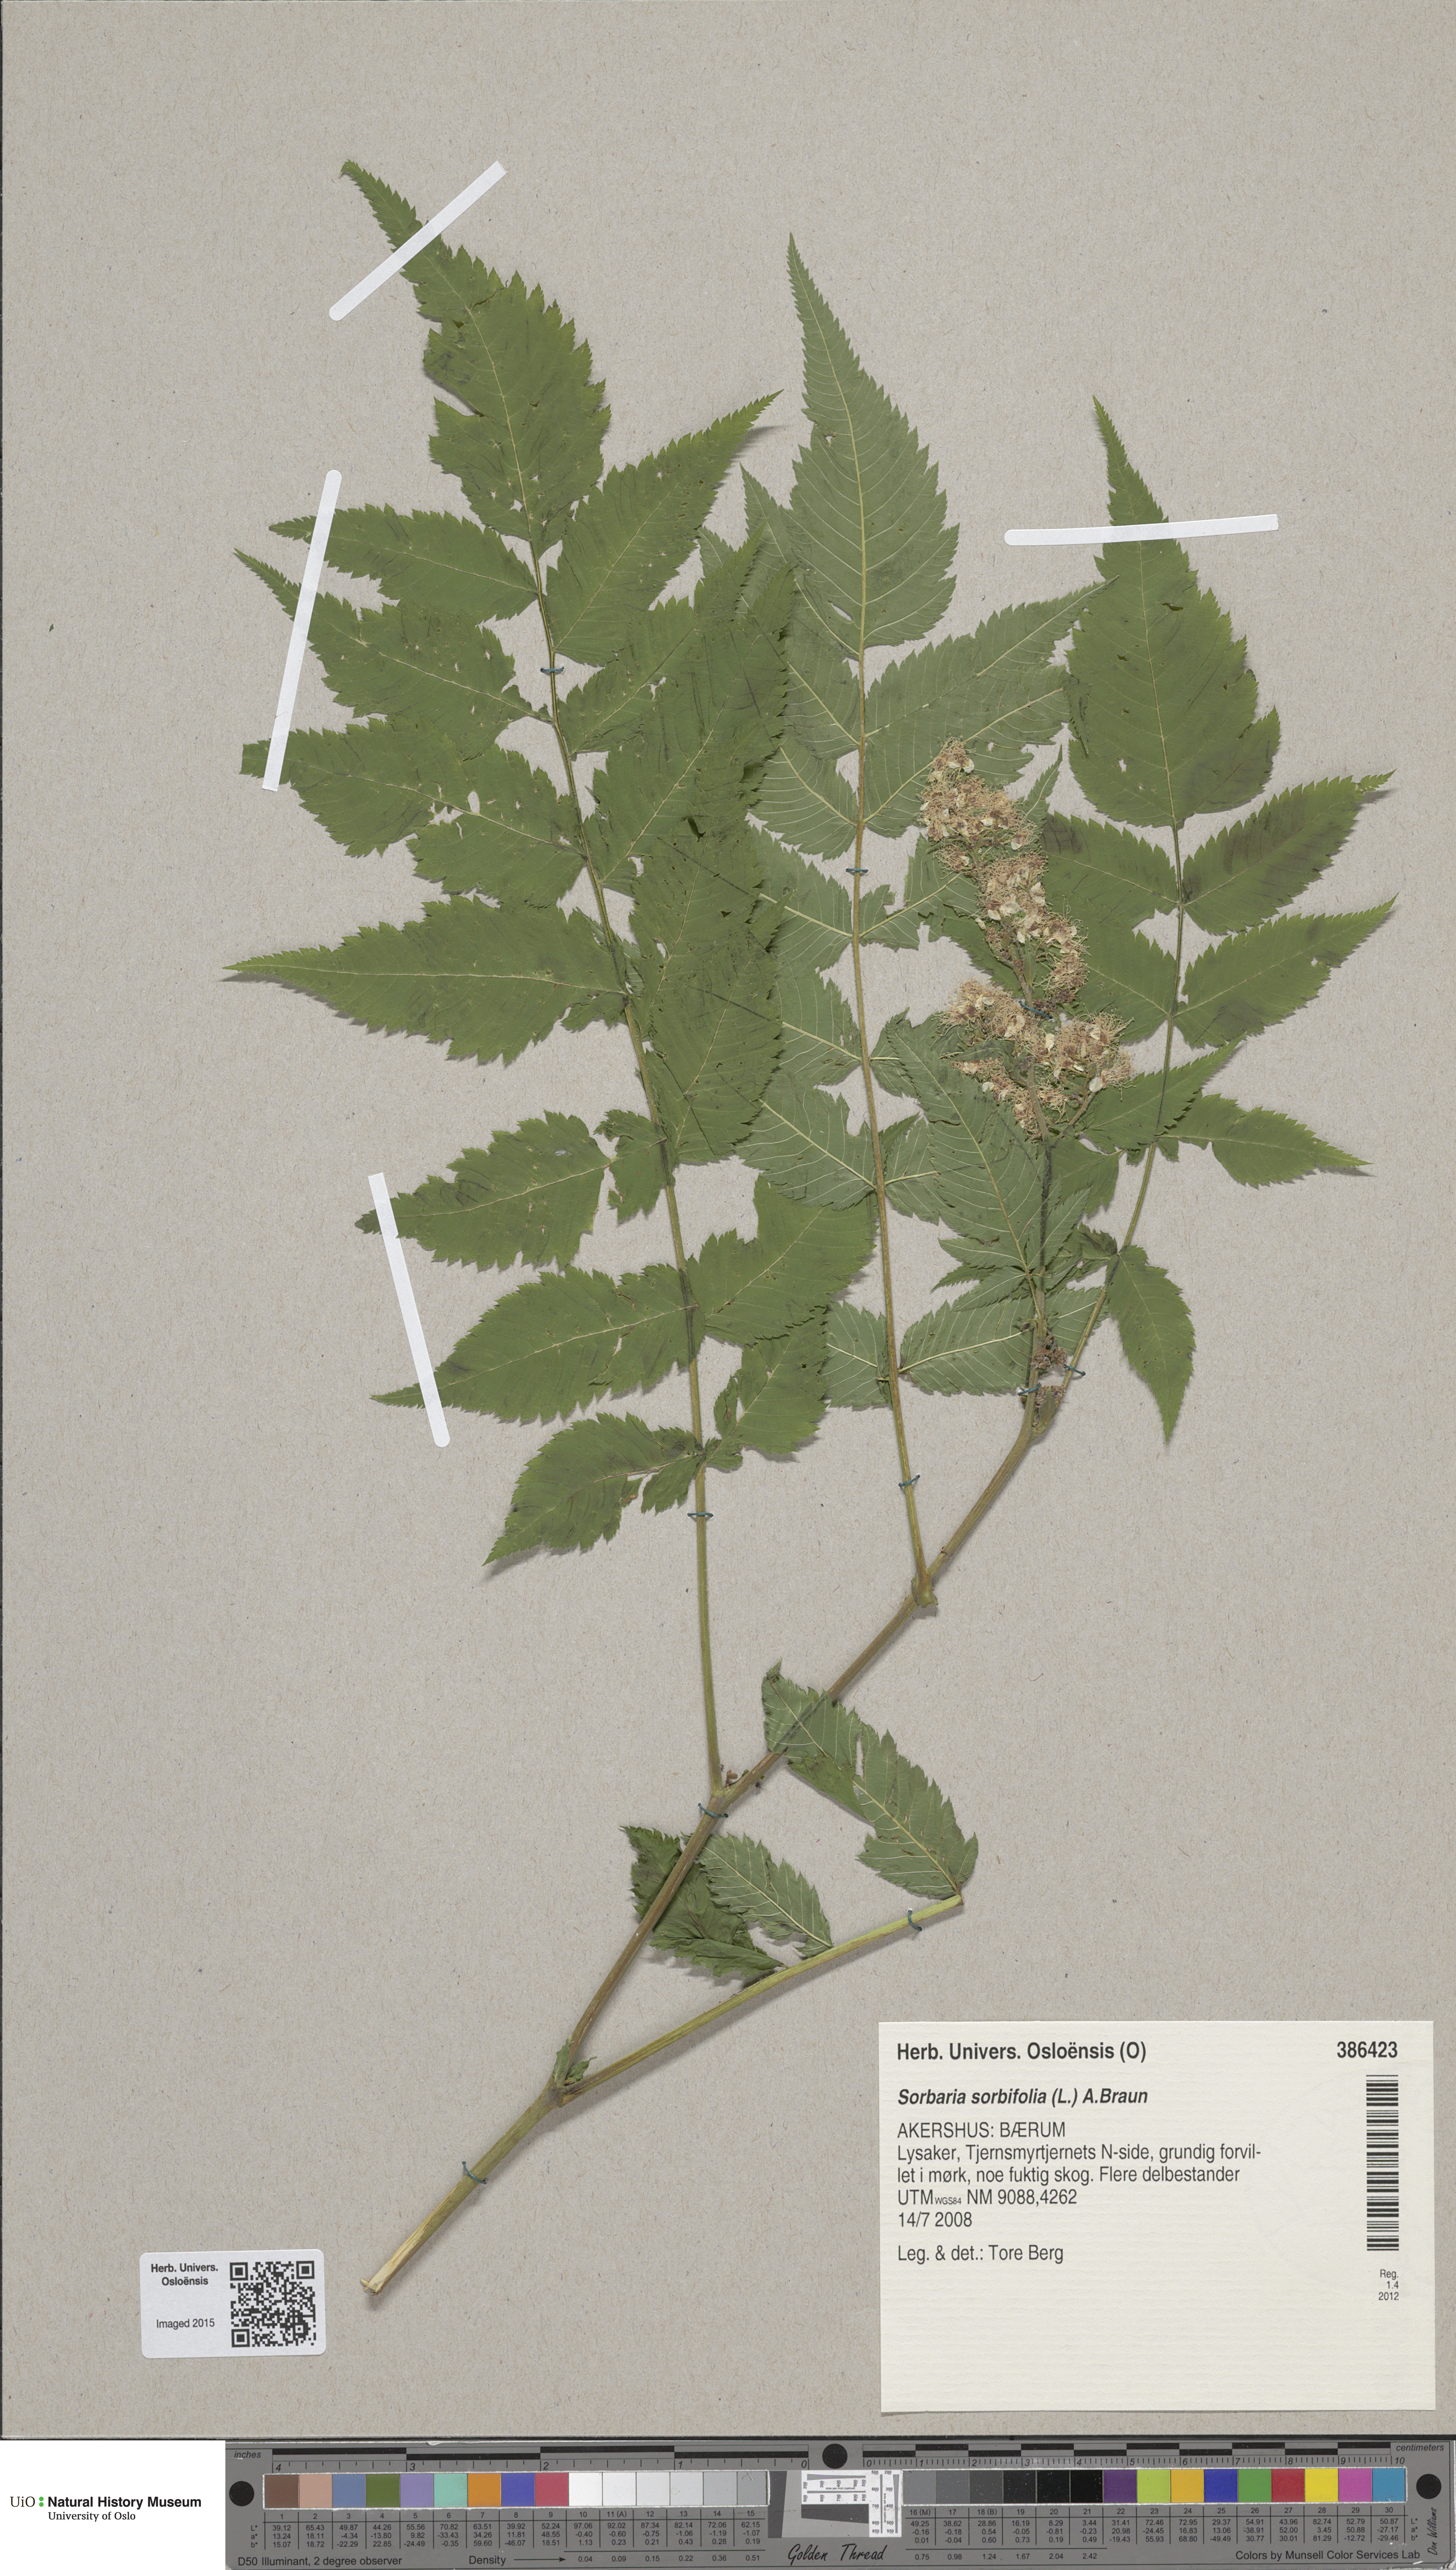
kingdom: Plantae
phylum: Tracheophyta
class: Magnoliopsida
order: Rosales
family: Rosaceae
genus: Sorbaria
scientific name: Sorbaria sorbifolia
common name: False spiraea
